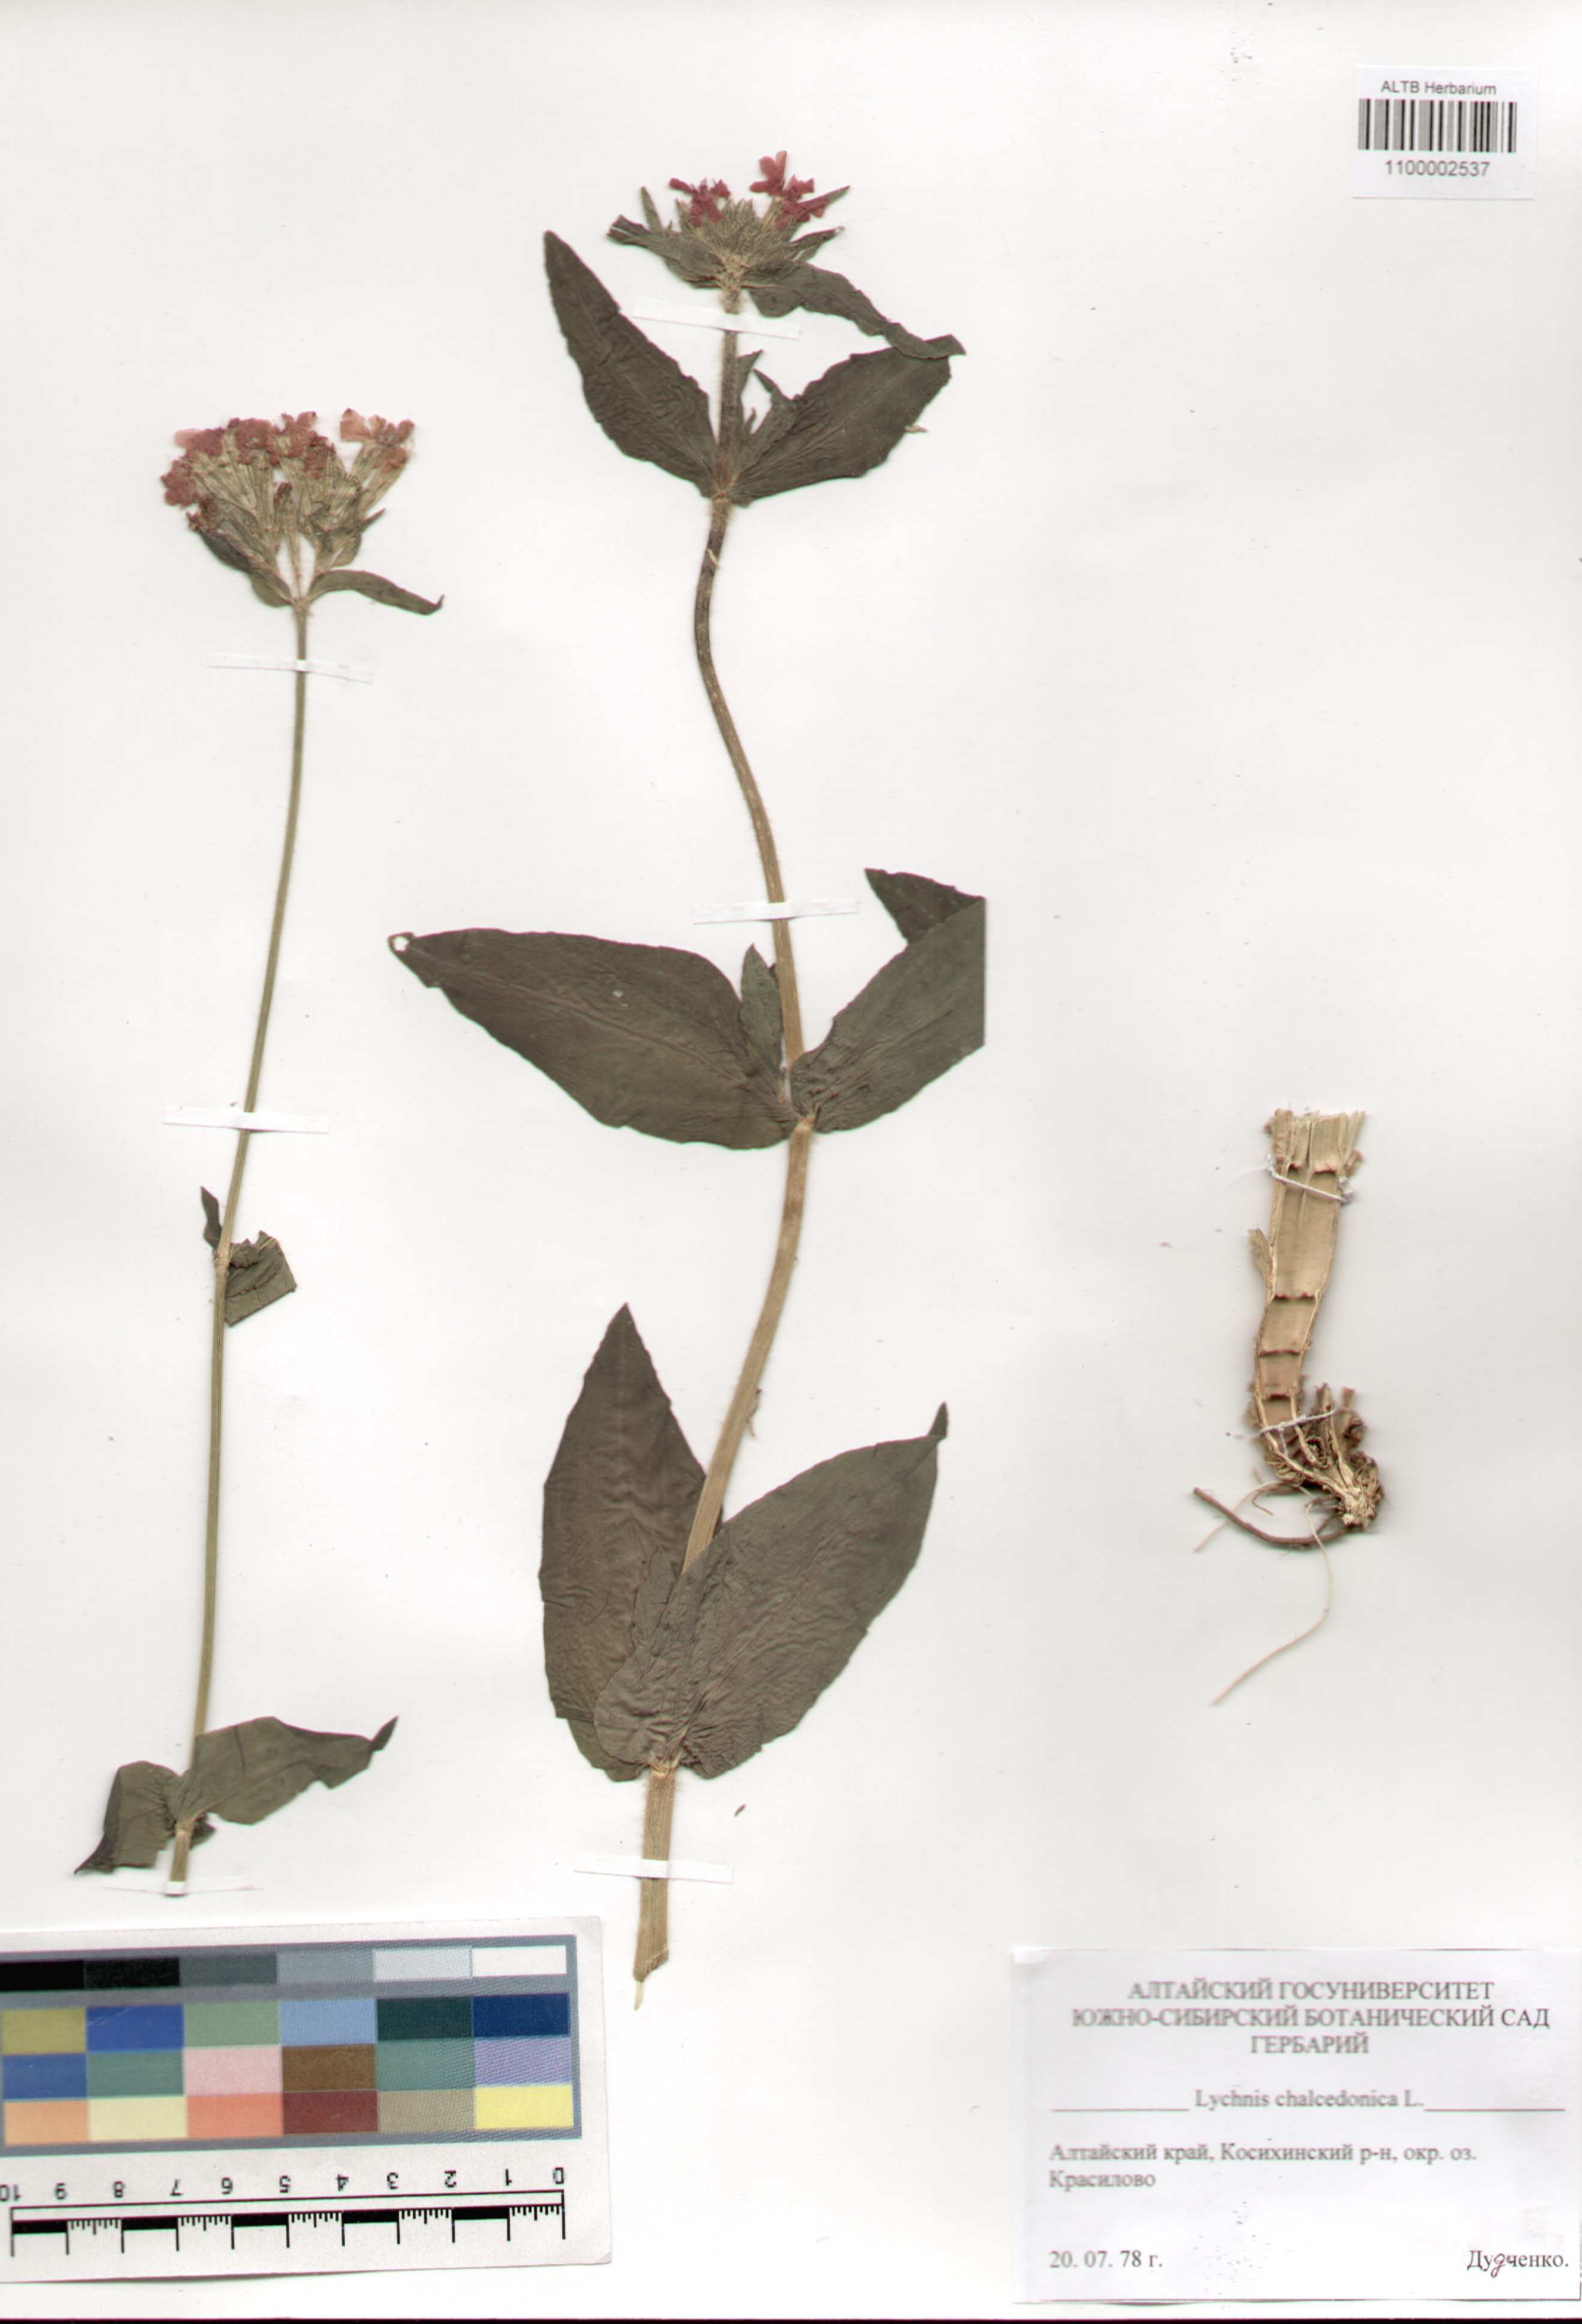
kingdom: Plantae
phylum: Tracheophyta
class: Magnoliopsida
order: Caryophyllales
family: Caryophyllaceae
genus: Silene
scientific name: Silene chalcedonica
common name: Maltese-cross
